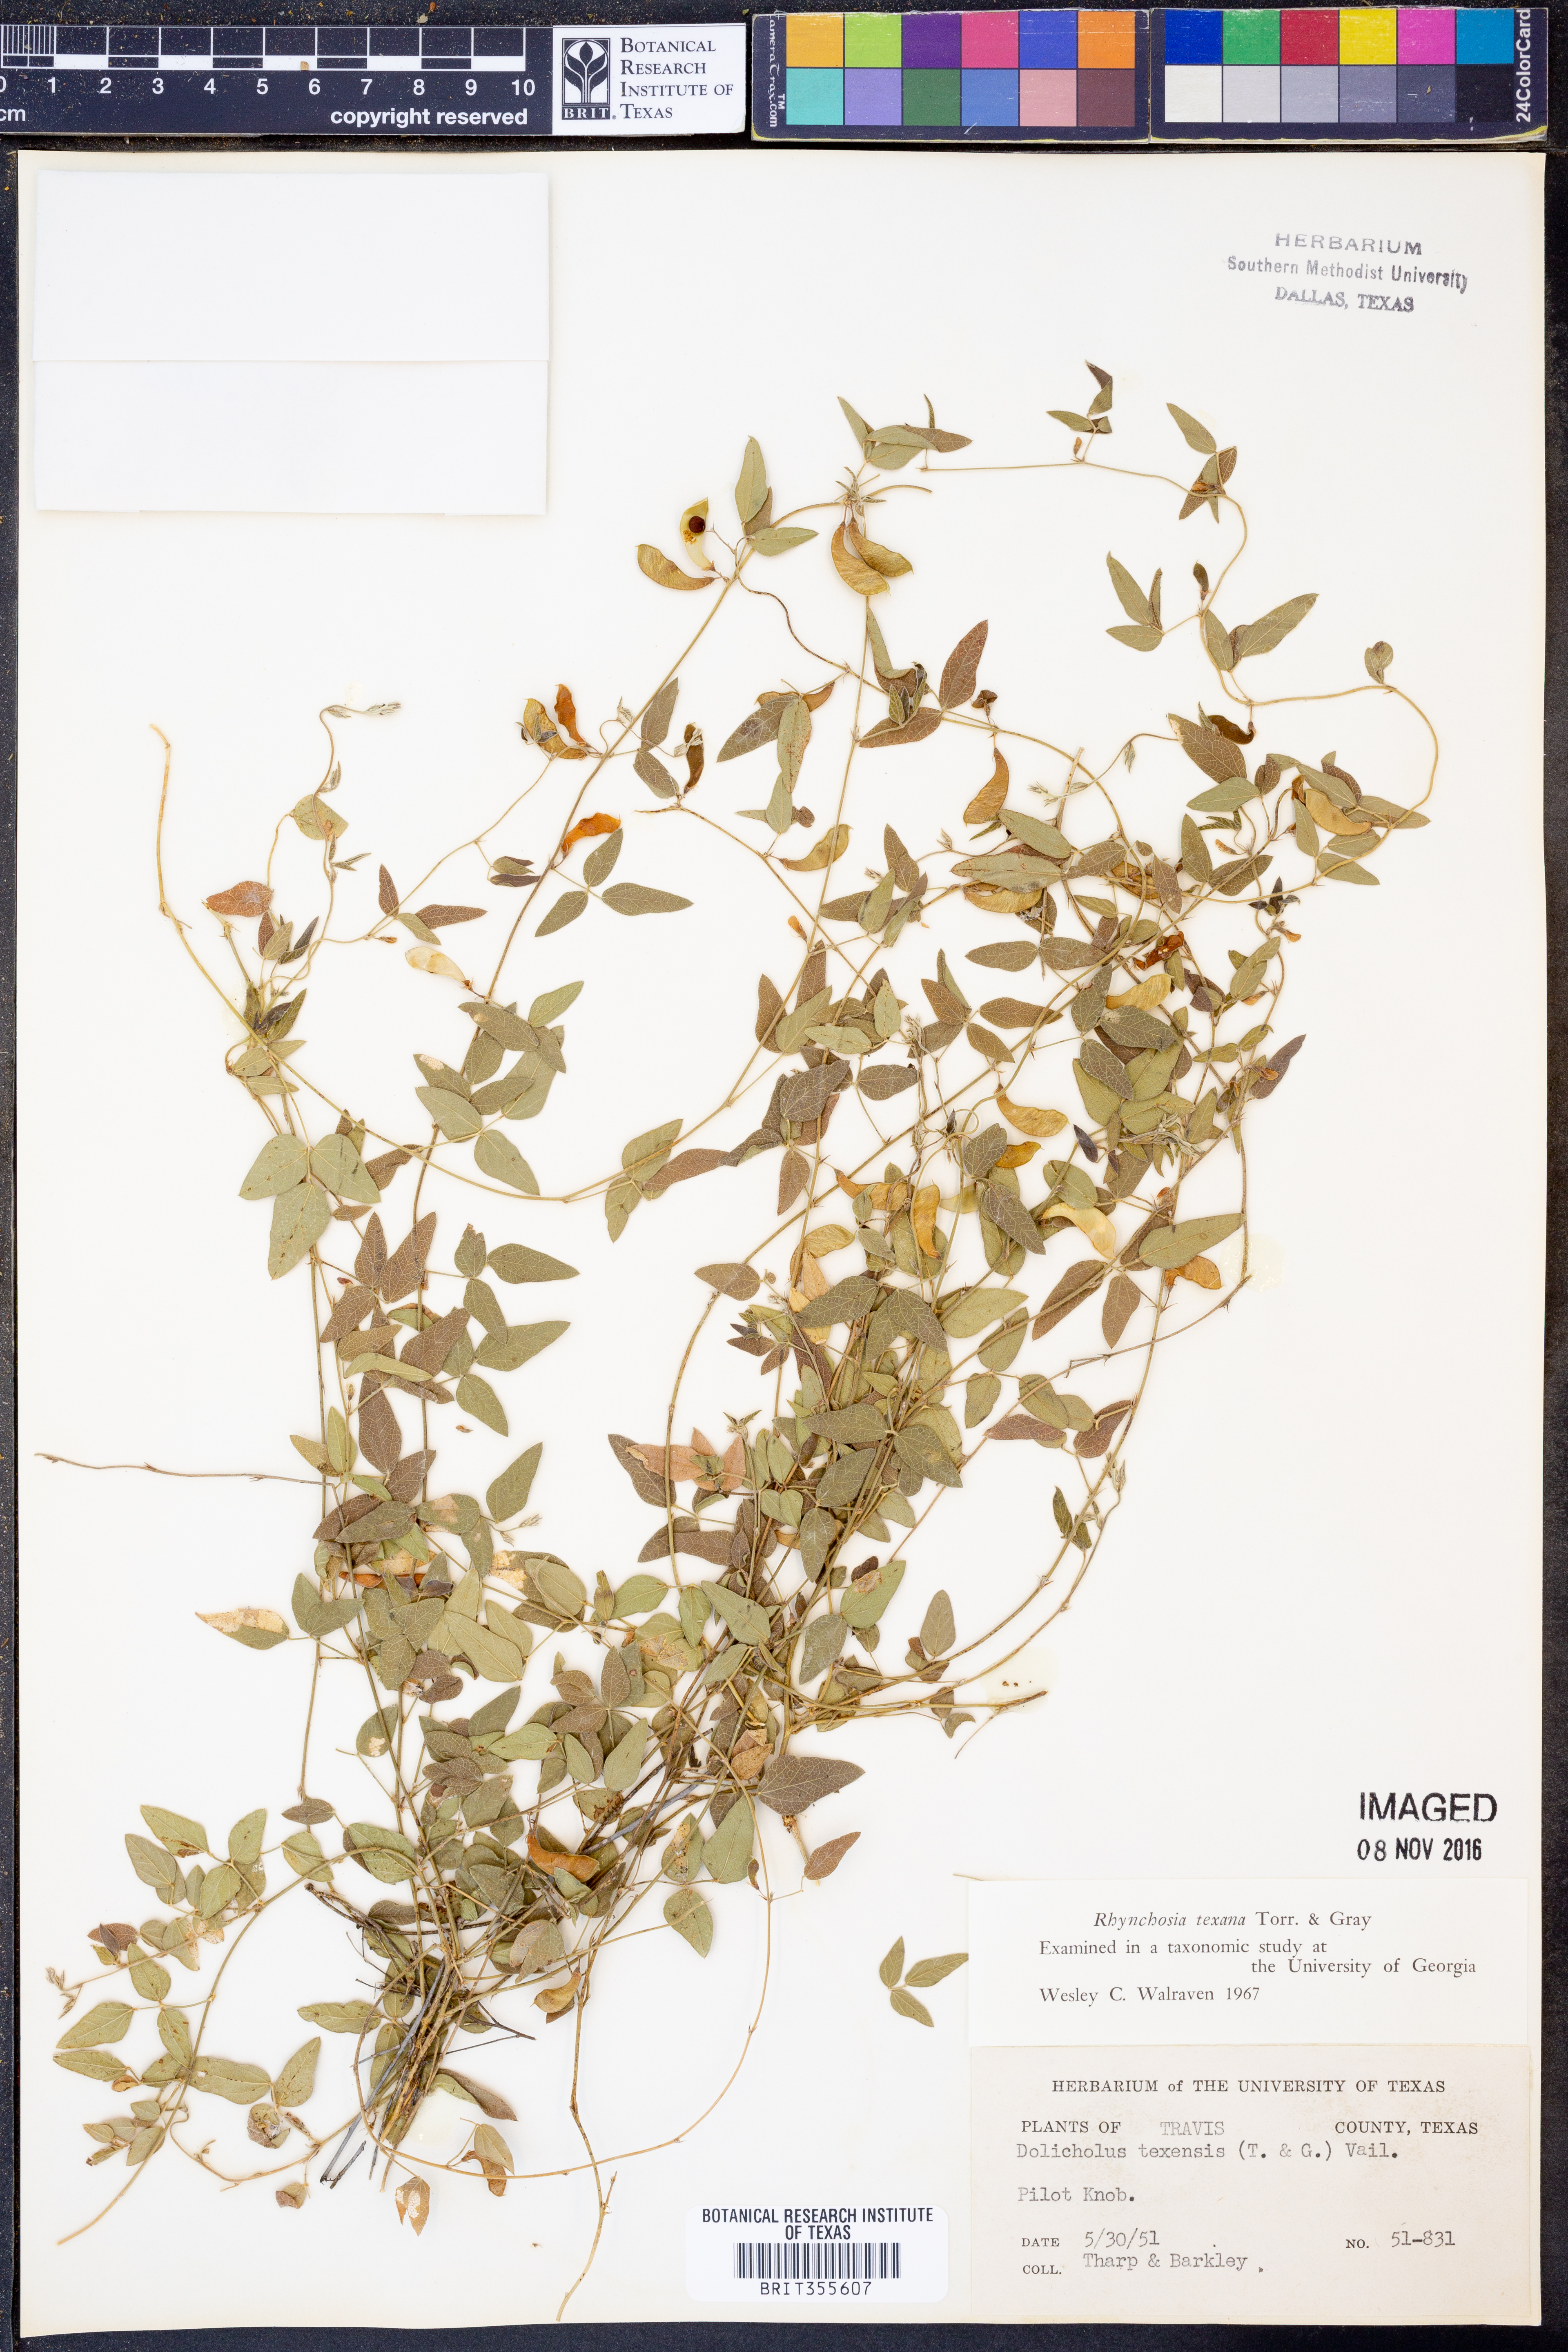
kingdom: Plantae
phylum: Tracheophyta
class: Magnoliopsida
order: Fabales
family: Fabaceae
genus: Rhynchosia
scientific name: Rhynchosia senna
